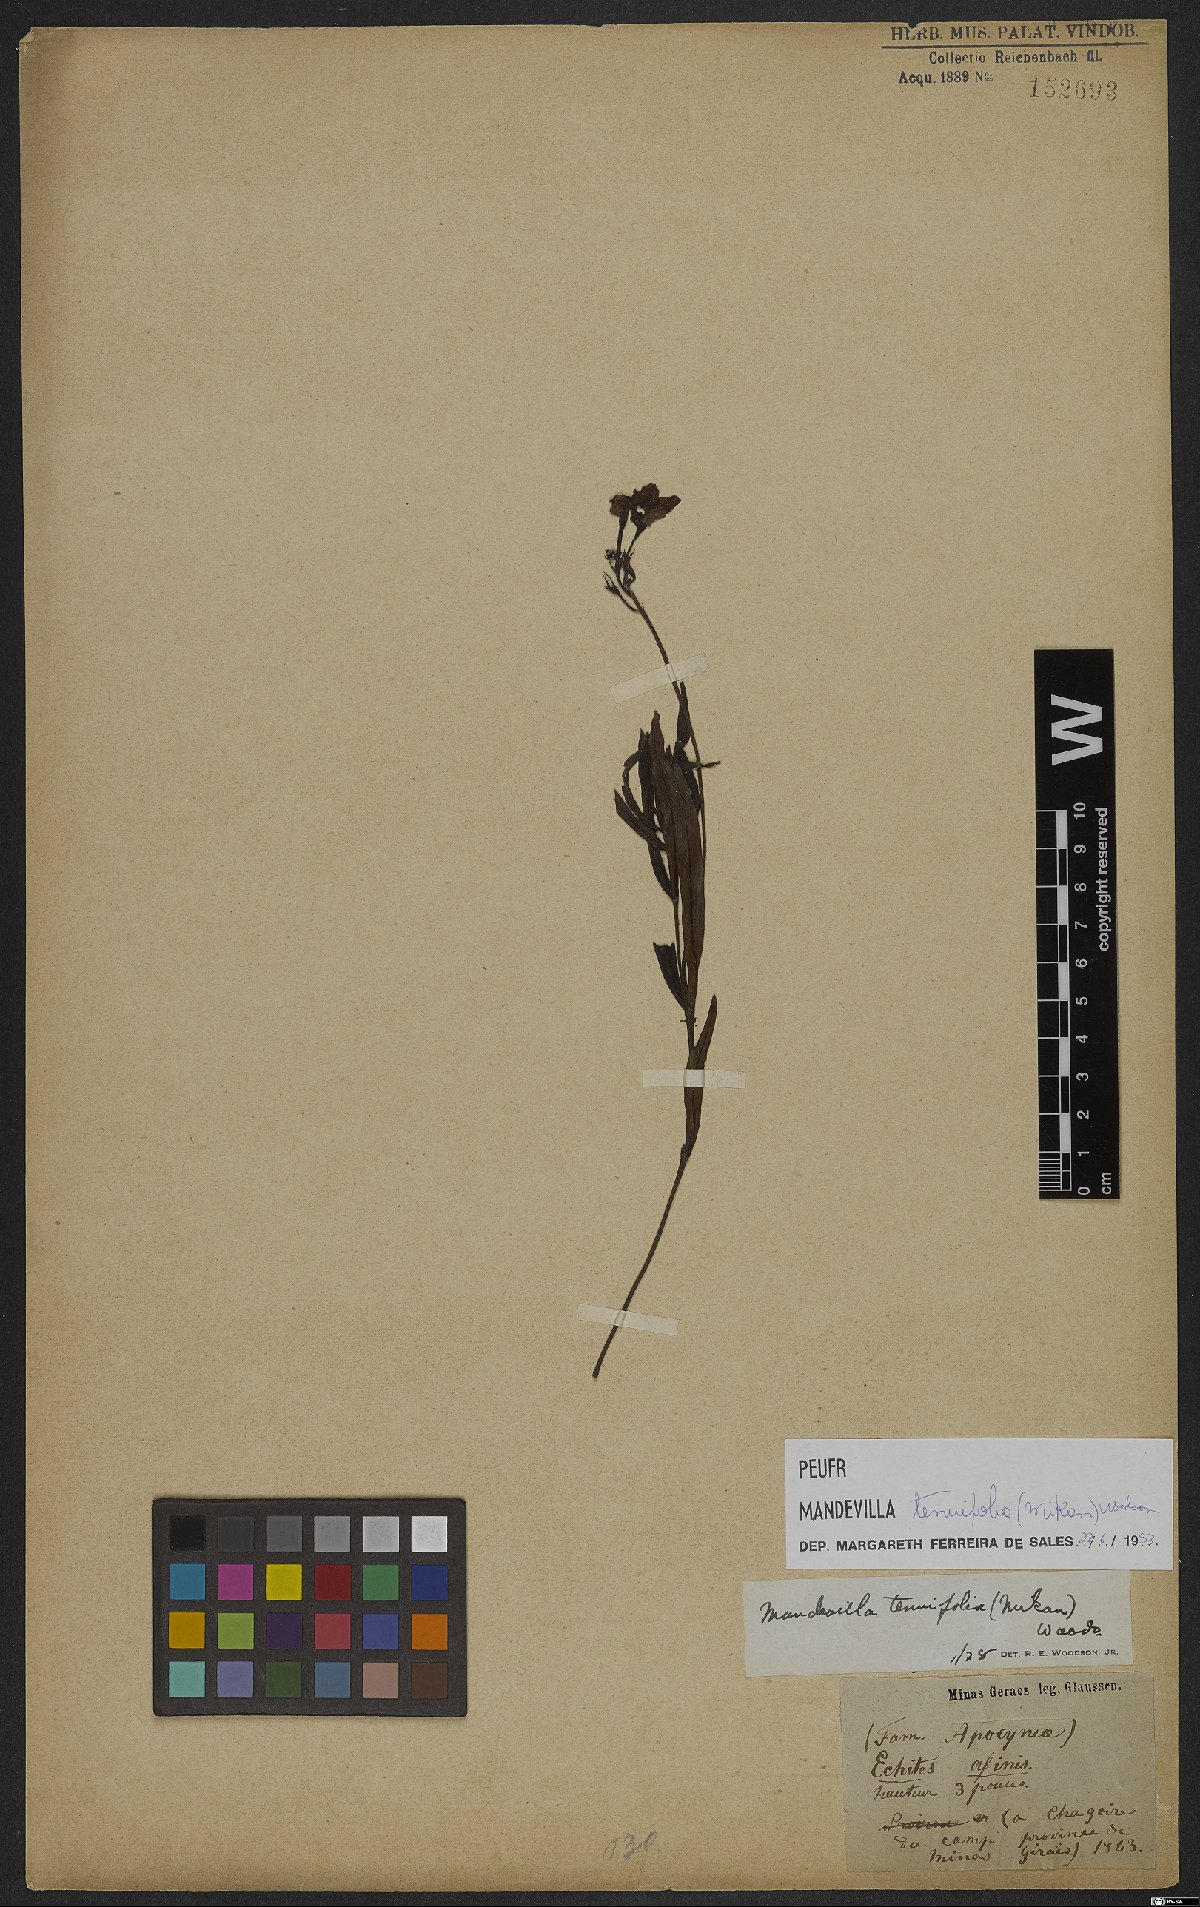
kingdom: Plantae
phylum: Tracheophyta
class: Magnoliopsida
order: Gentianales
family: Apocynaceae
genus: Mandevilla
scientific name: Mandevilla tenuifolia
